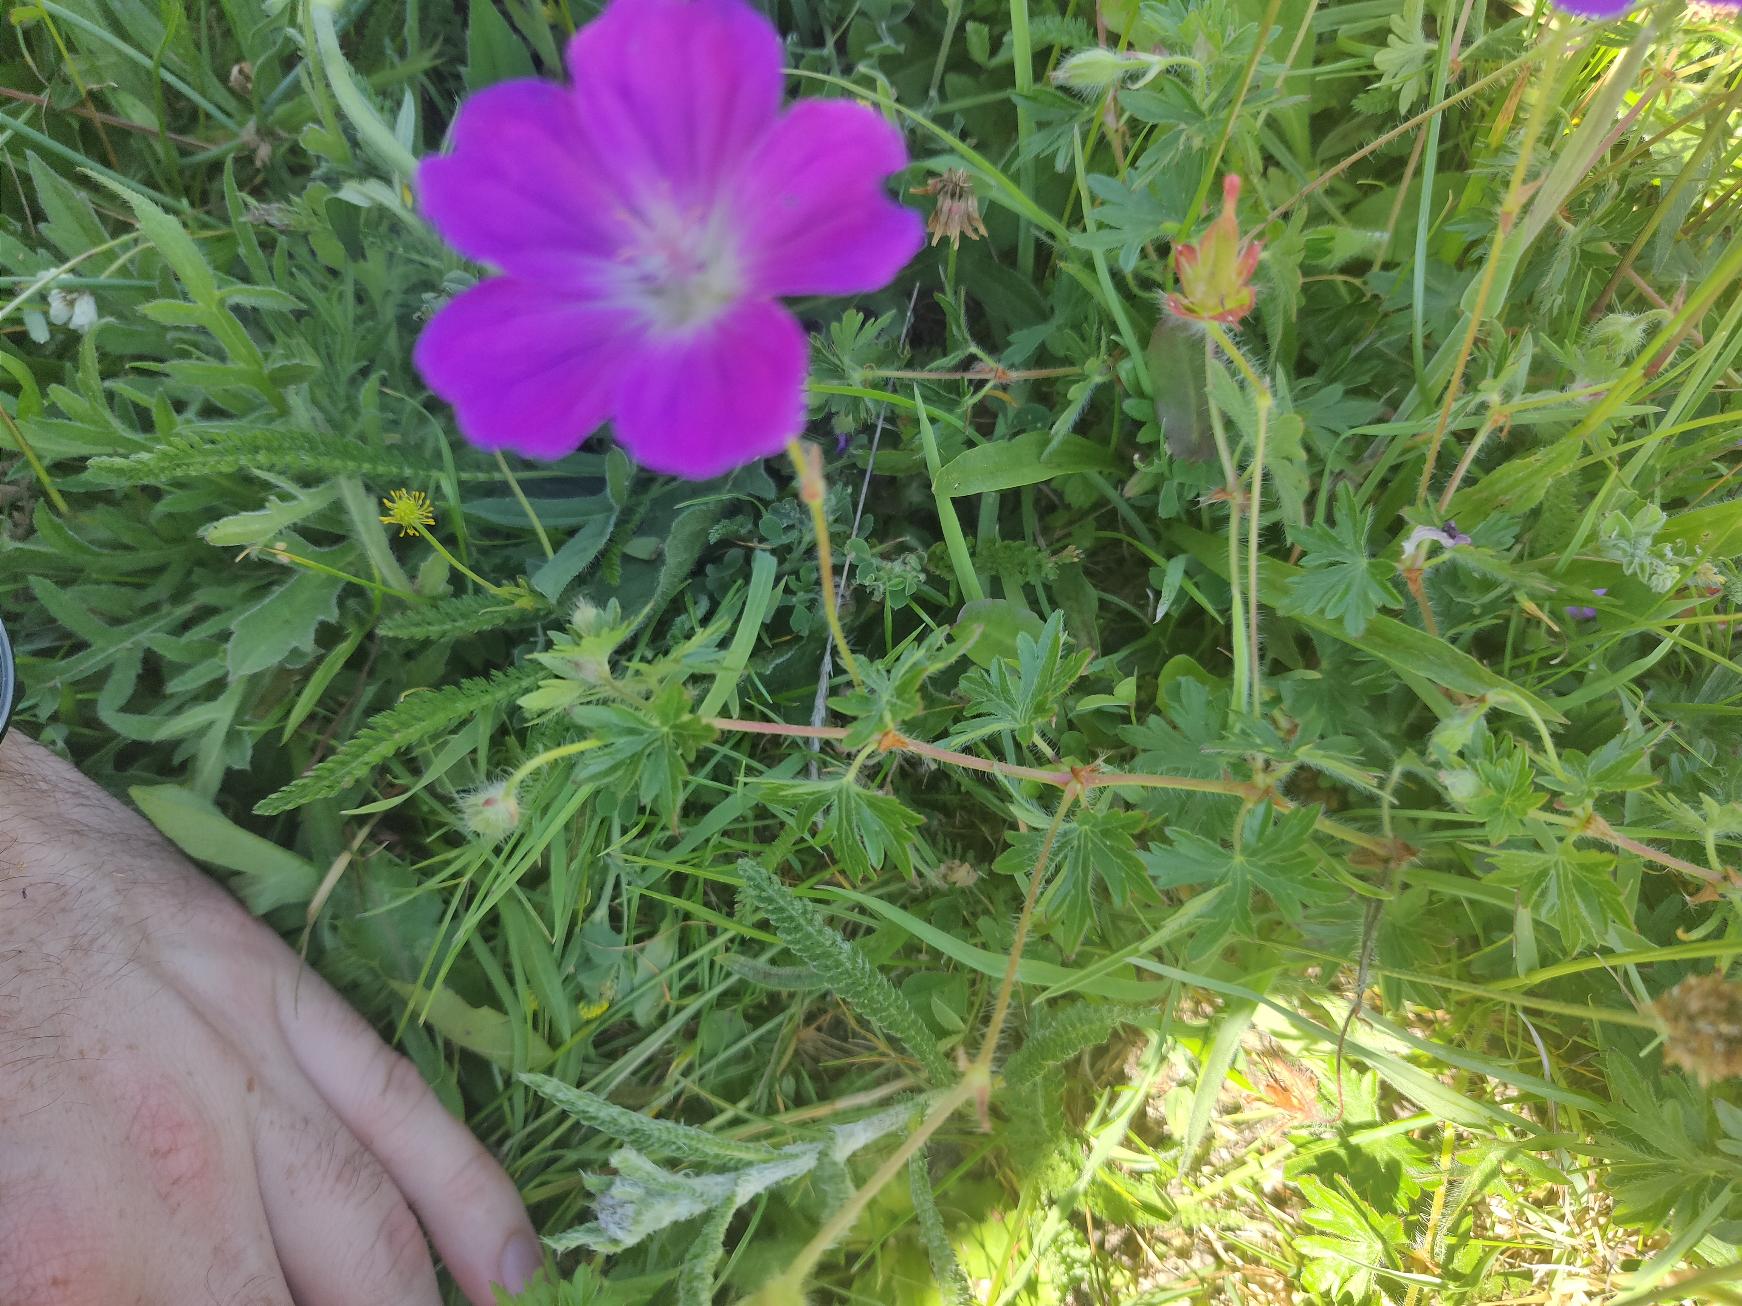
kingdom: Plantae
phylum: Tracheophyta
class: Magnoliopsida
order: Geraniales
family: Geraniaceae
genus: Geranium
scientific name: Geranium sanguineum
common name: Blodrød storkenæb
